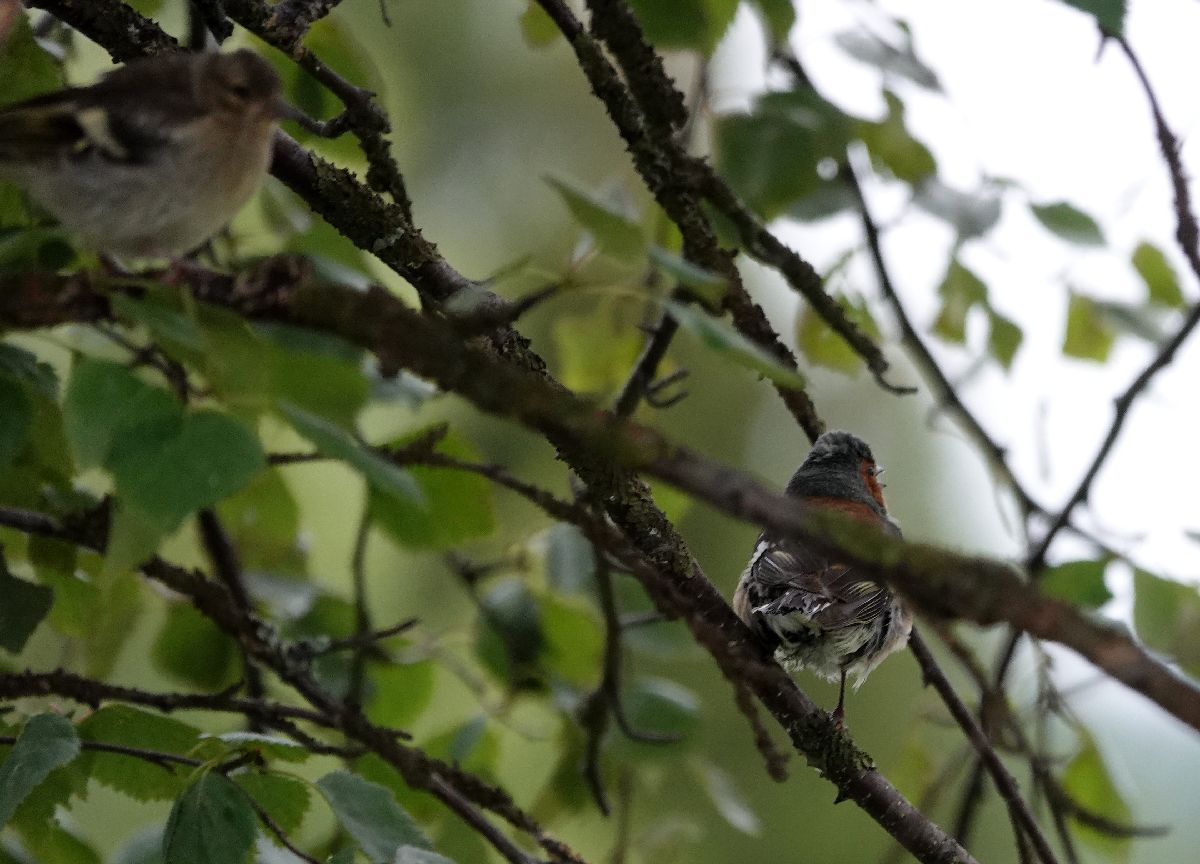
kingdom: Animalia
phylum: Chordata
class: Aves
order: Passeriformes
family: Fringillidae
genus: Fringilla
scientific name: Fringilla coelebs
